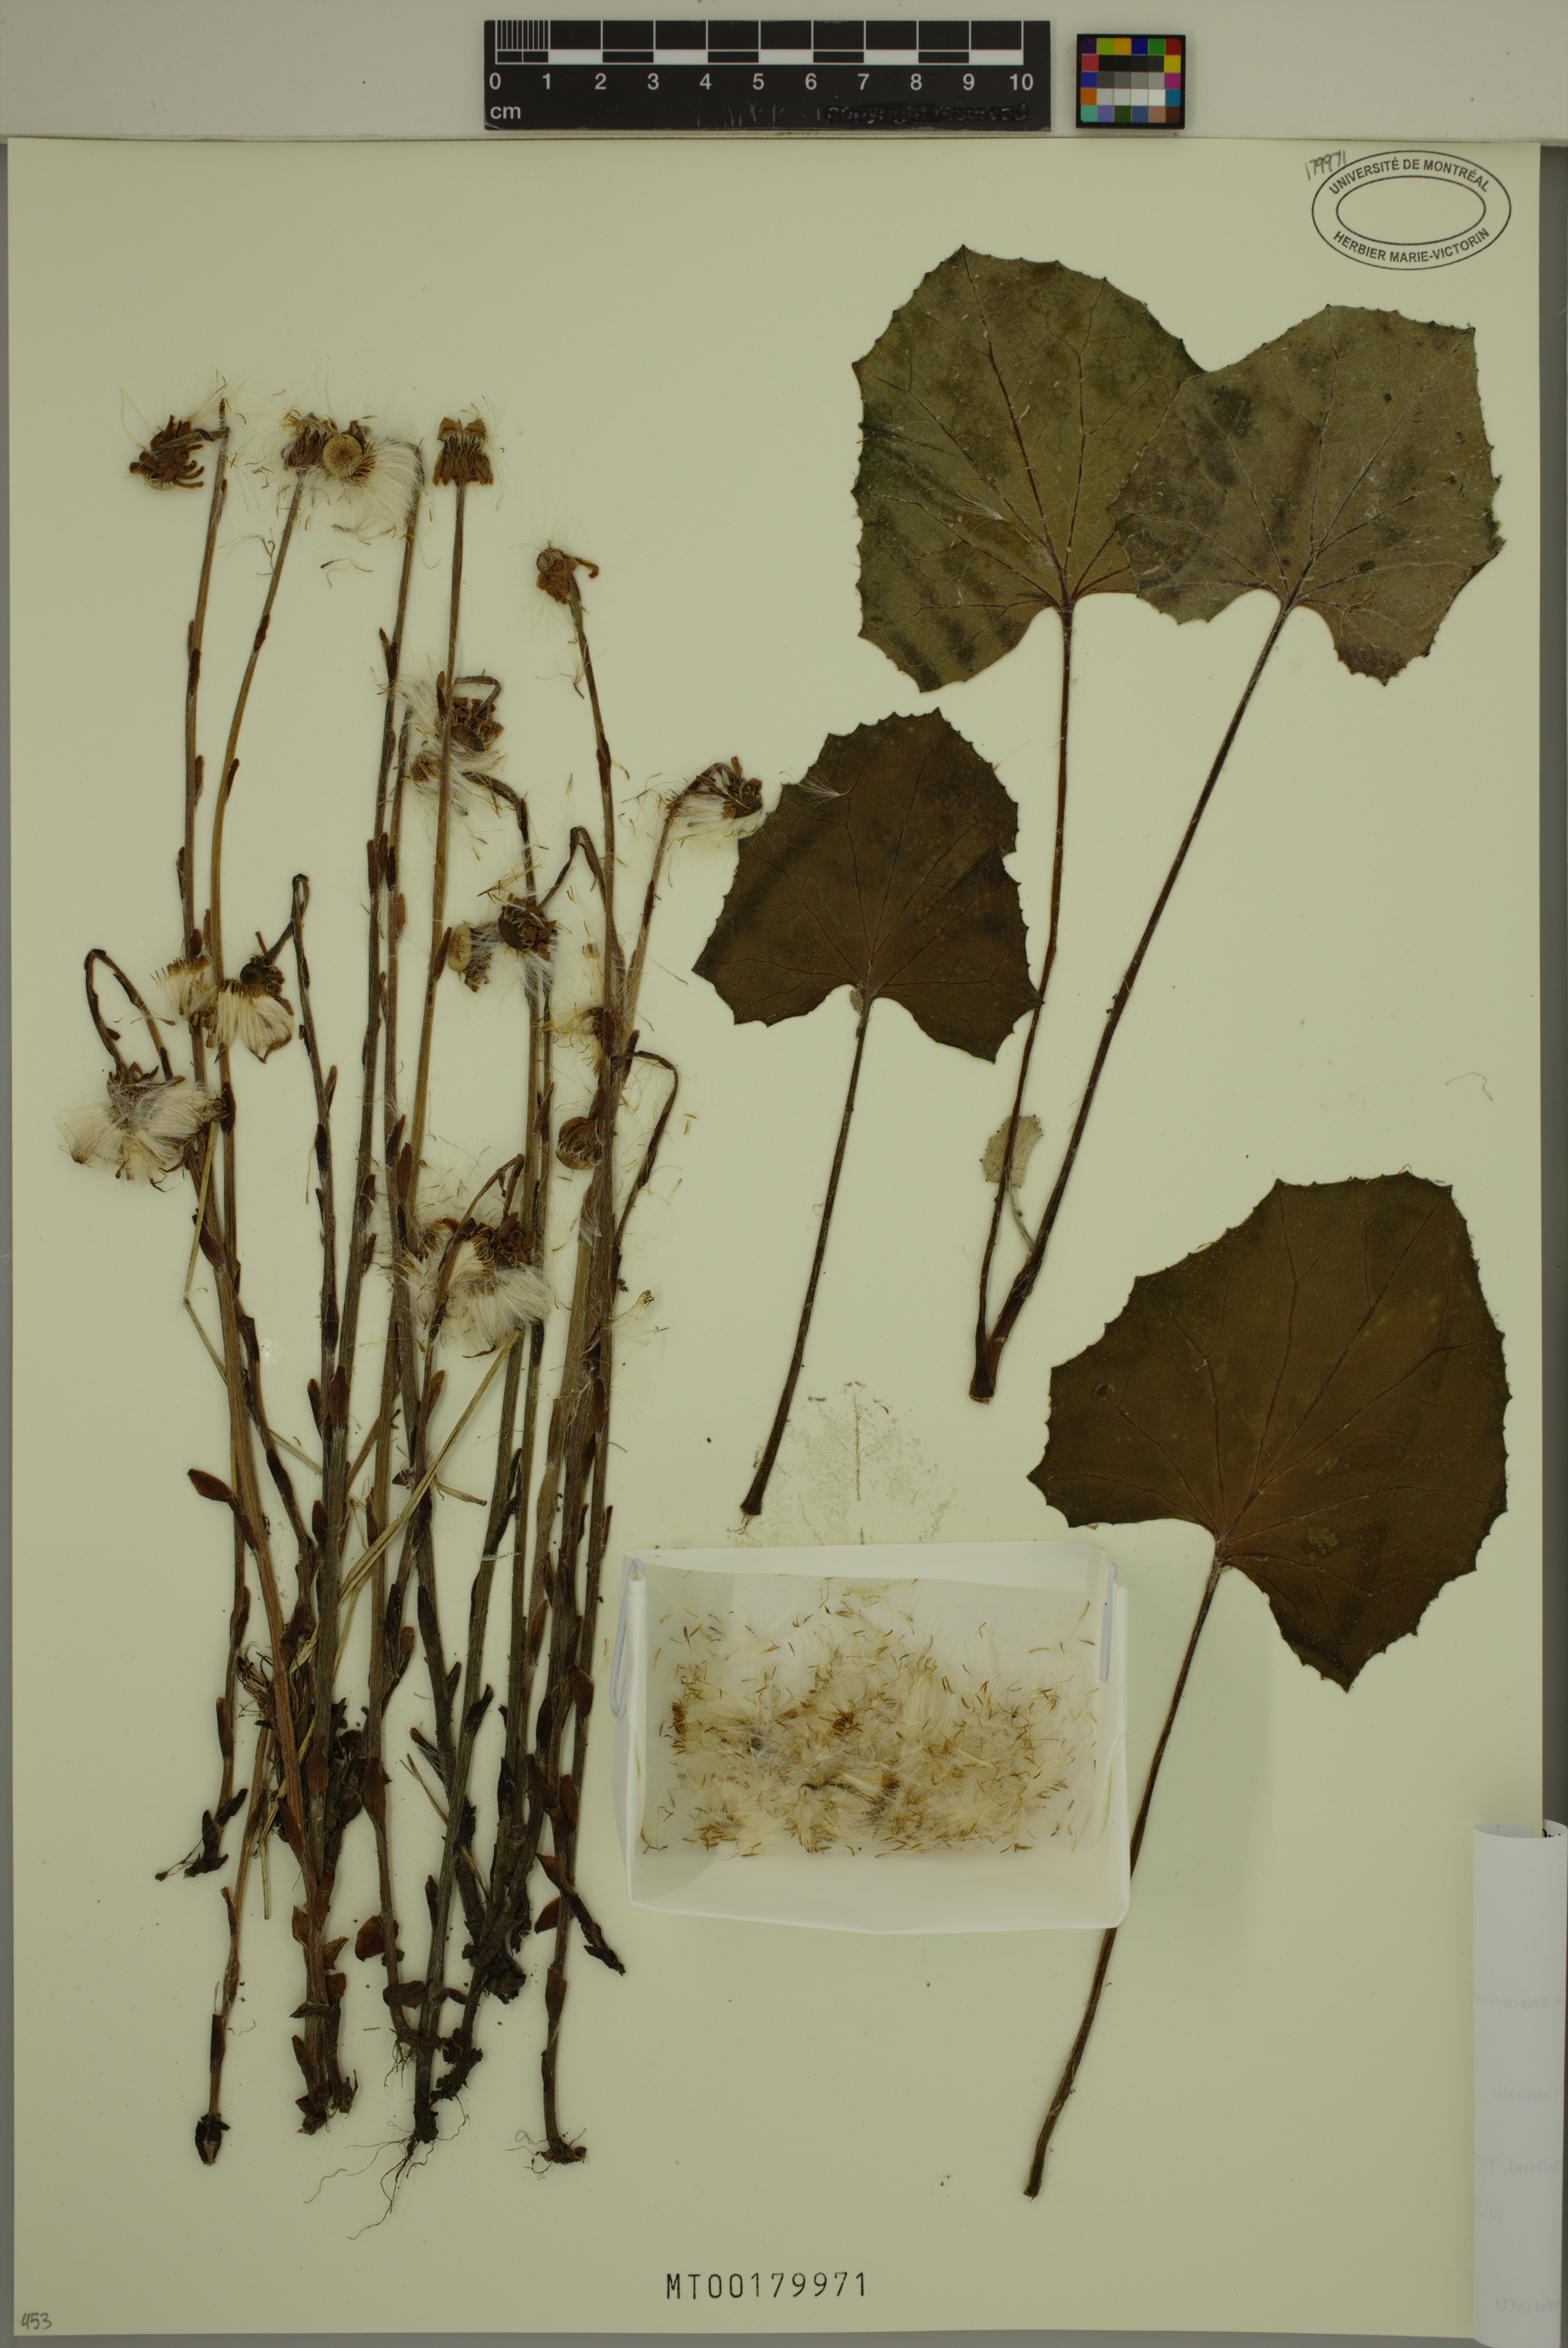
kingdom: Plantae
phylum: Tracheophyta
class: Magnoliopsida
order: Asterales
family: Asteraceae
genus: Tussilago
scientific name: Tussilago farfara
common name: Coltsfoot
